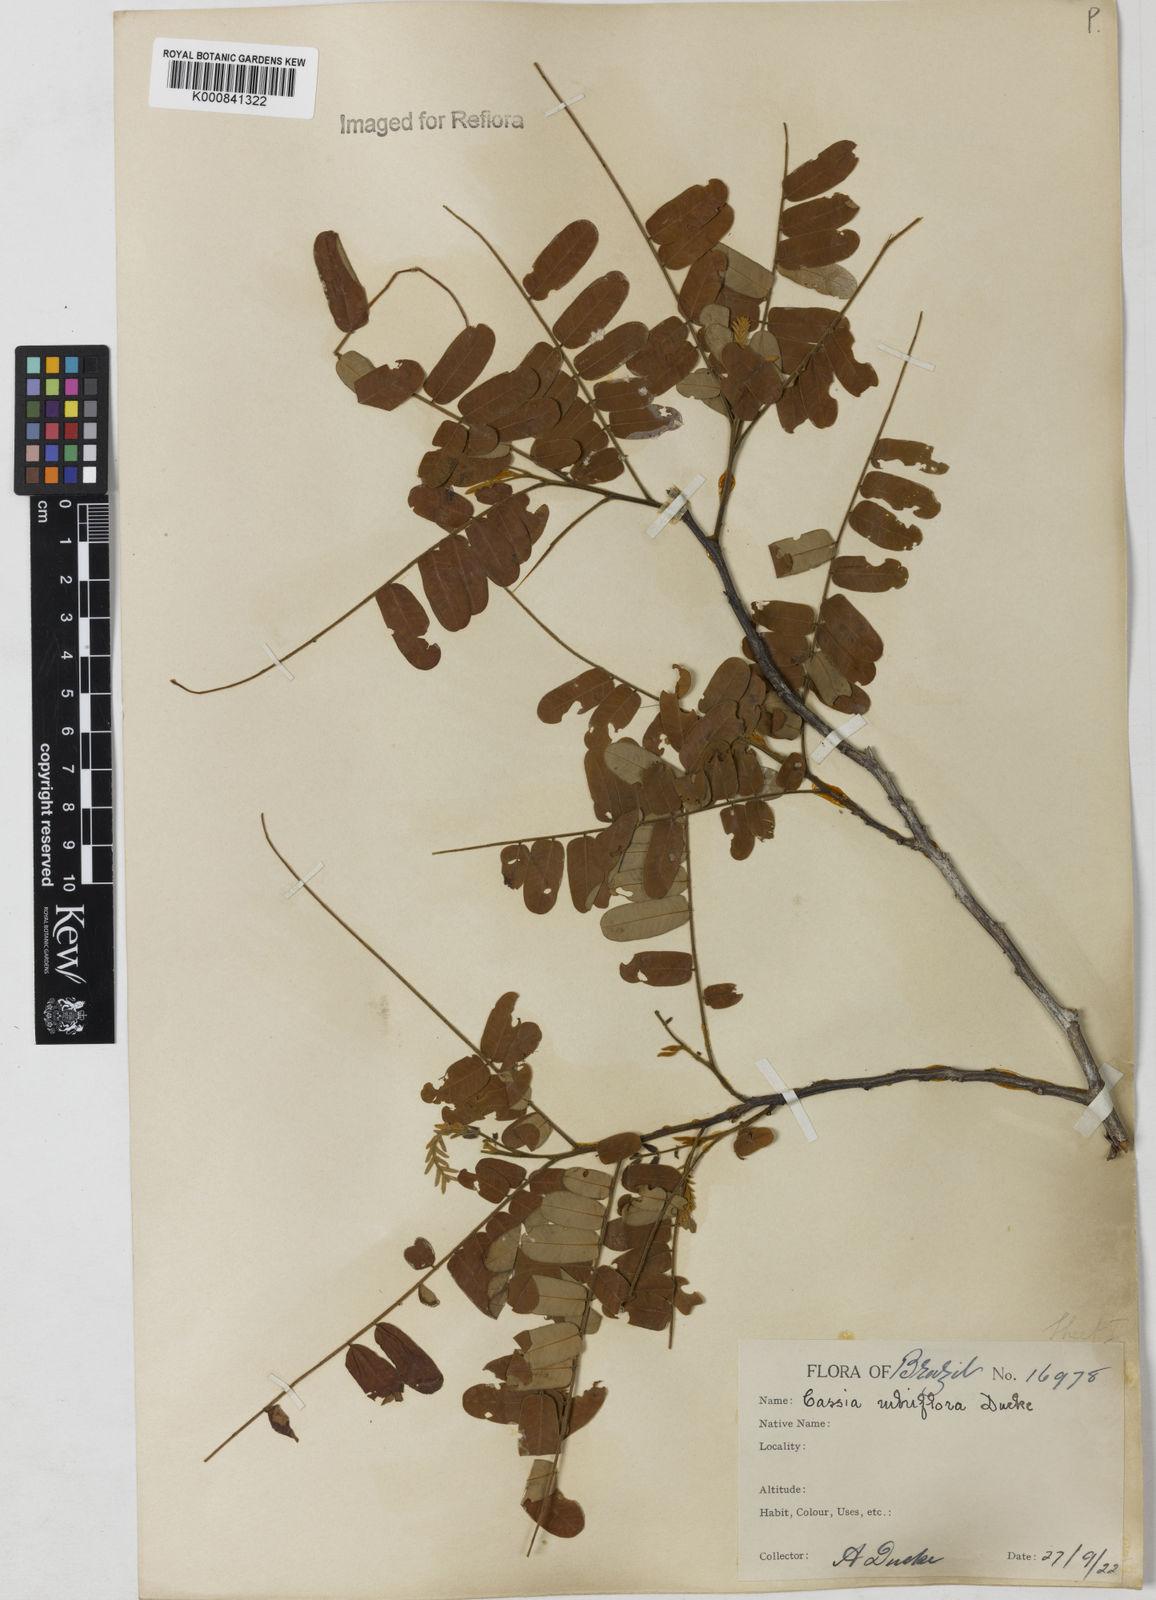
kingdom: Plantae
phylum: Tracheophyta
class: Magnoliopsida
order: Fabales
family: Fabaceae
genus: Cassia
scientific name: Cassia rubriflora
